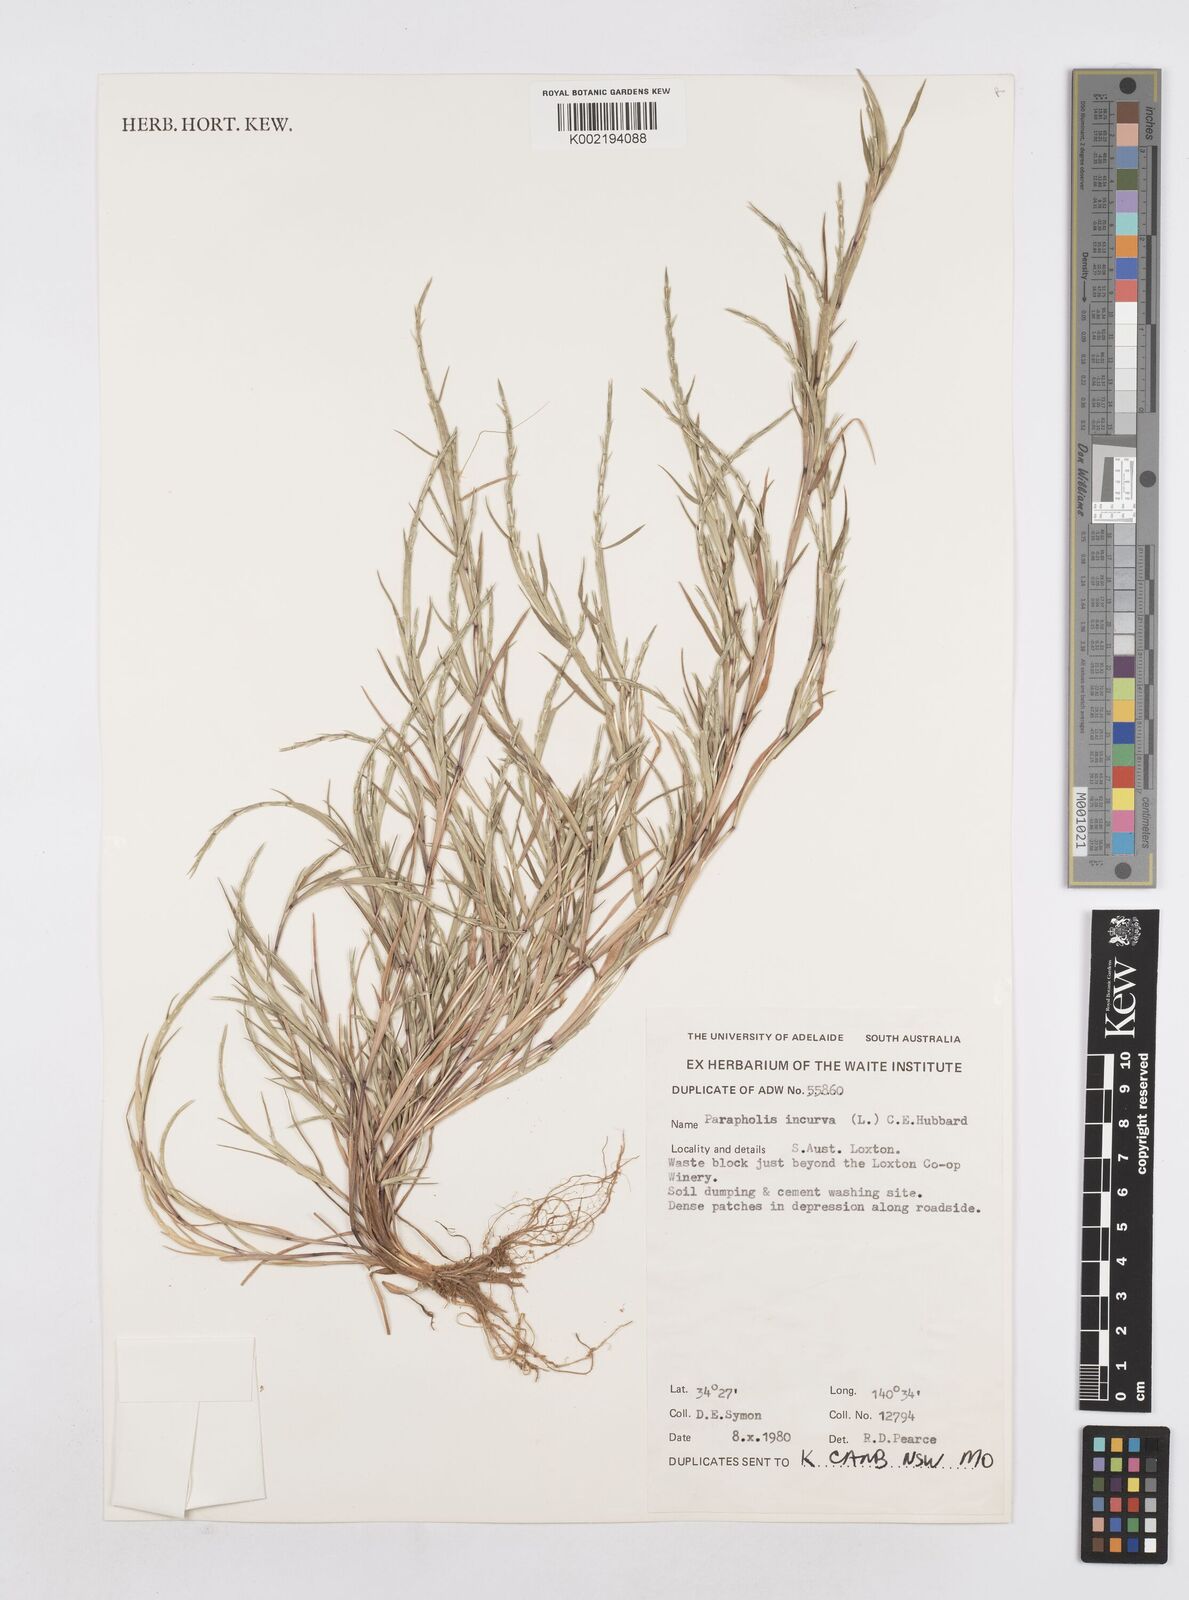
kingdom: Plantae
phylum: Tracheophyta
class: Liliopsida
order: Poales
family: Poaceae
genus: Parapholis
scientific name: Parapholis strigosa
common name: Hard-grass
